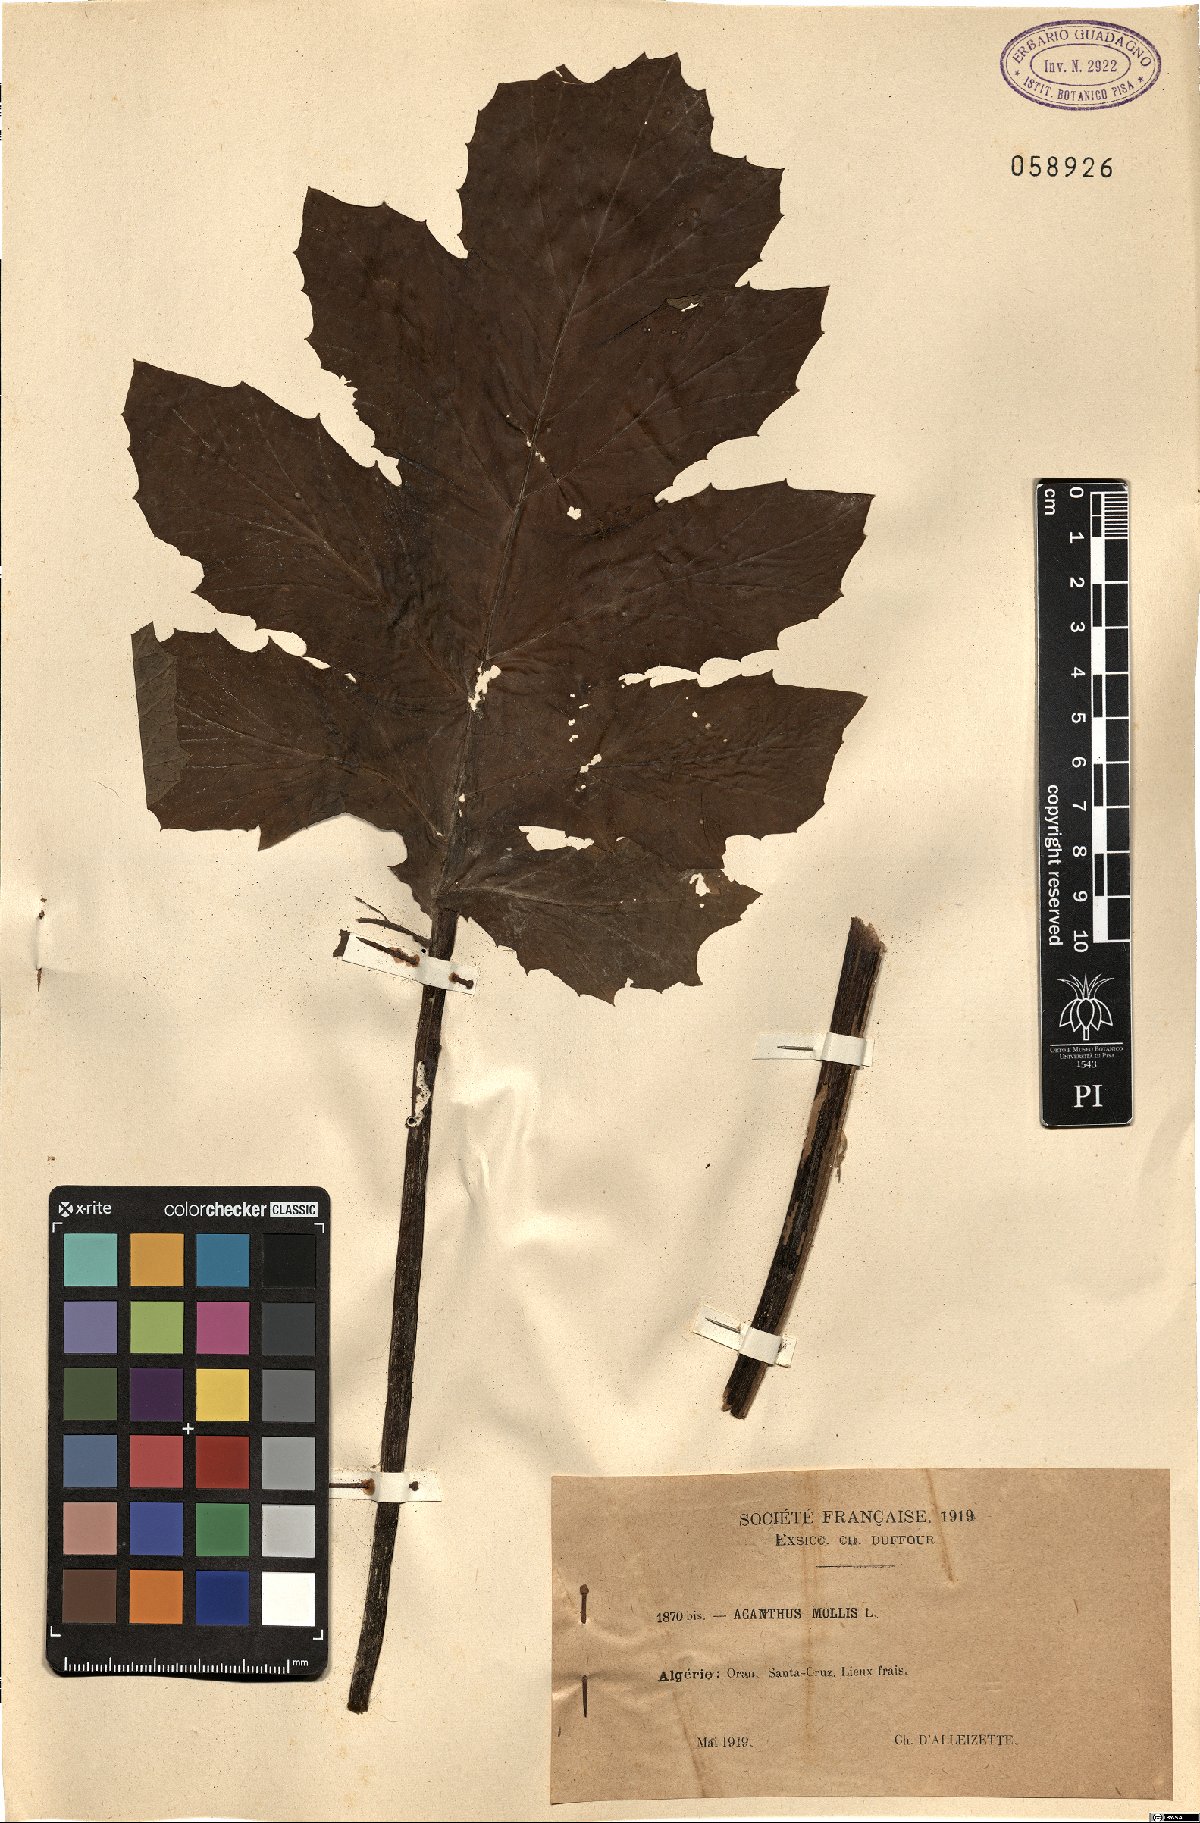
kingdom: Plantae
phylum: Tracheophyta
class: Magnoliopsida
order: Lamiales
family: Acanthaceae
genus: Acanthus
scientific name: Acanthus mollis
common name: Bear's-breech
